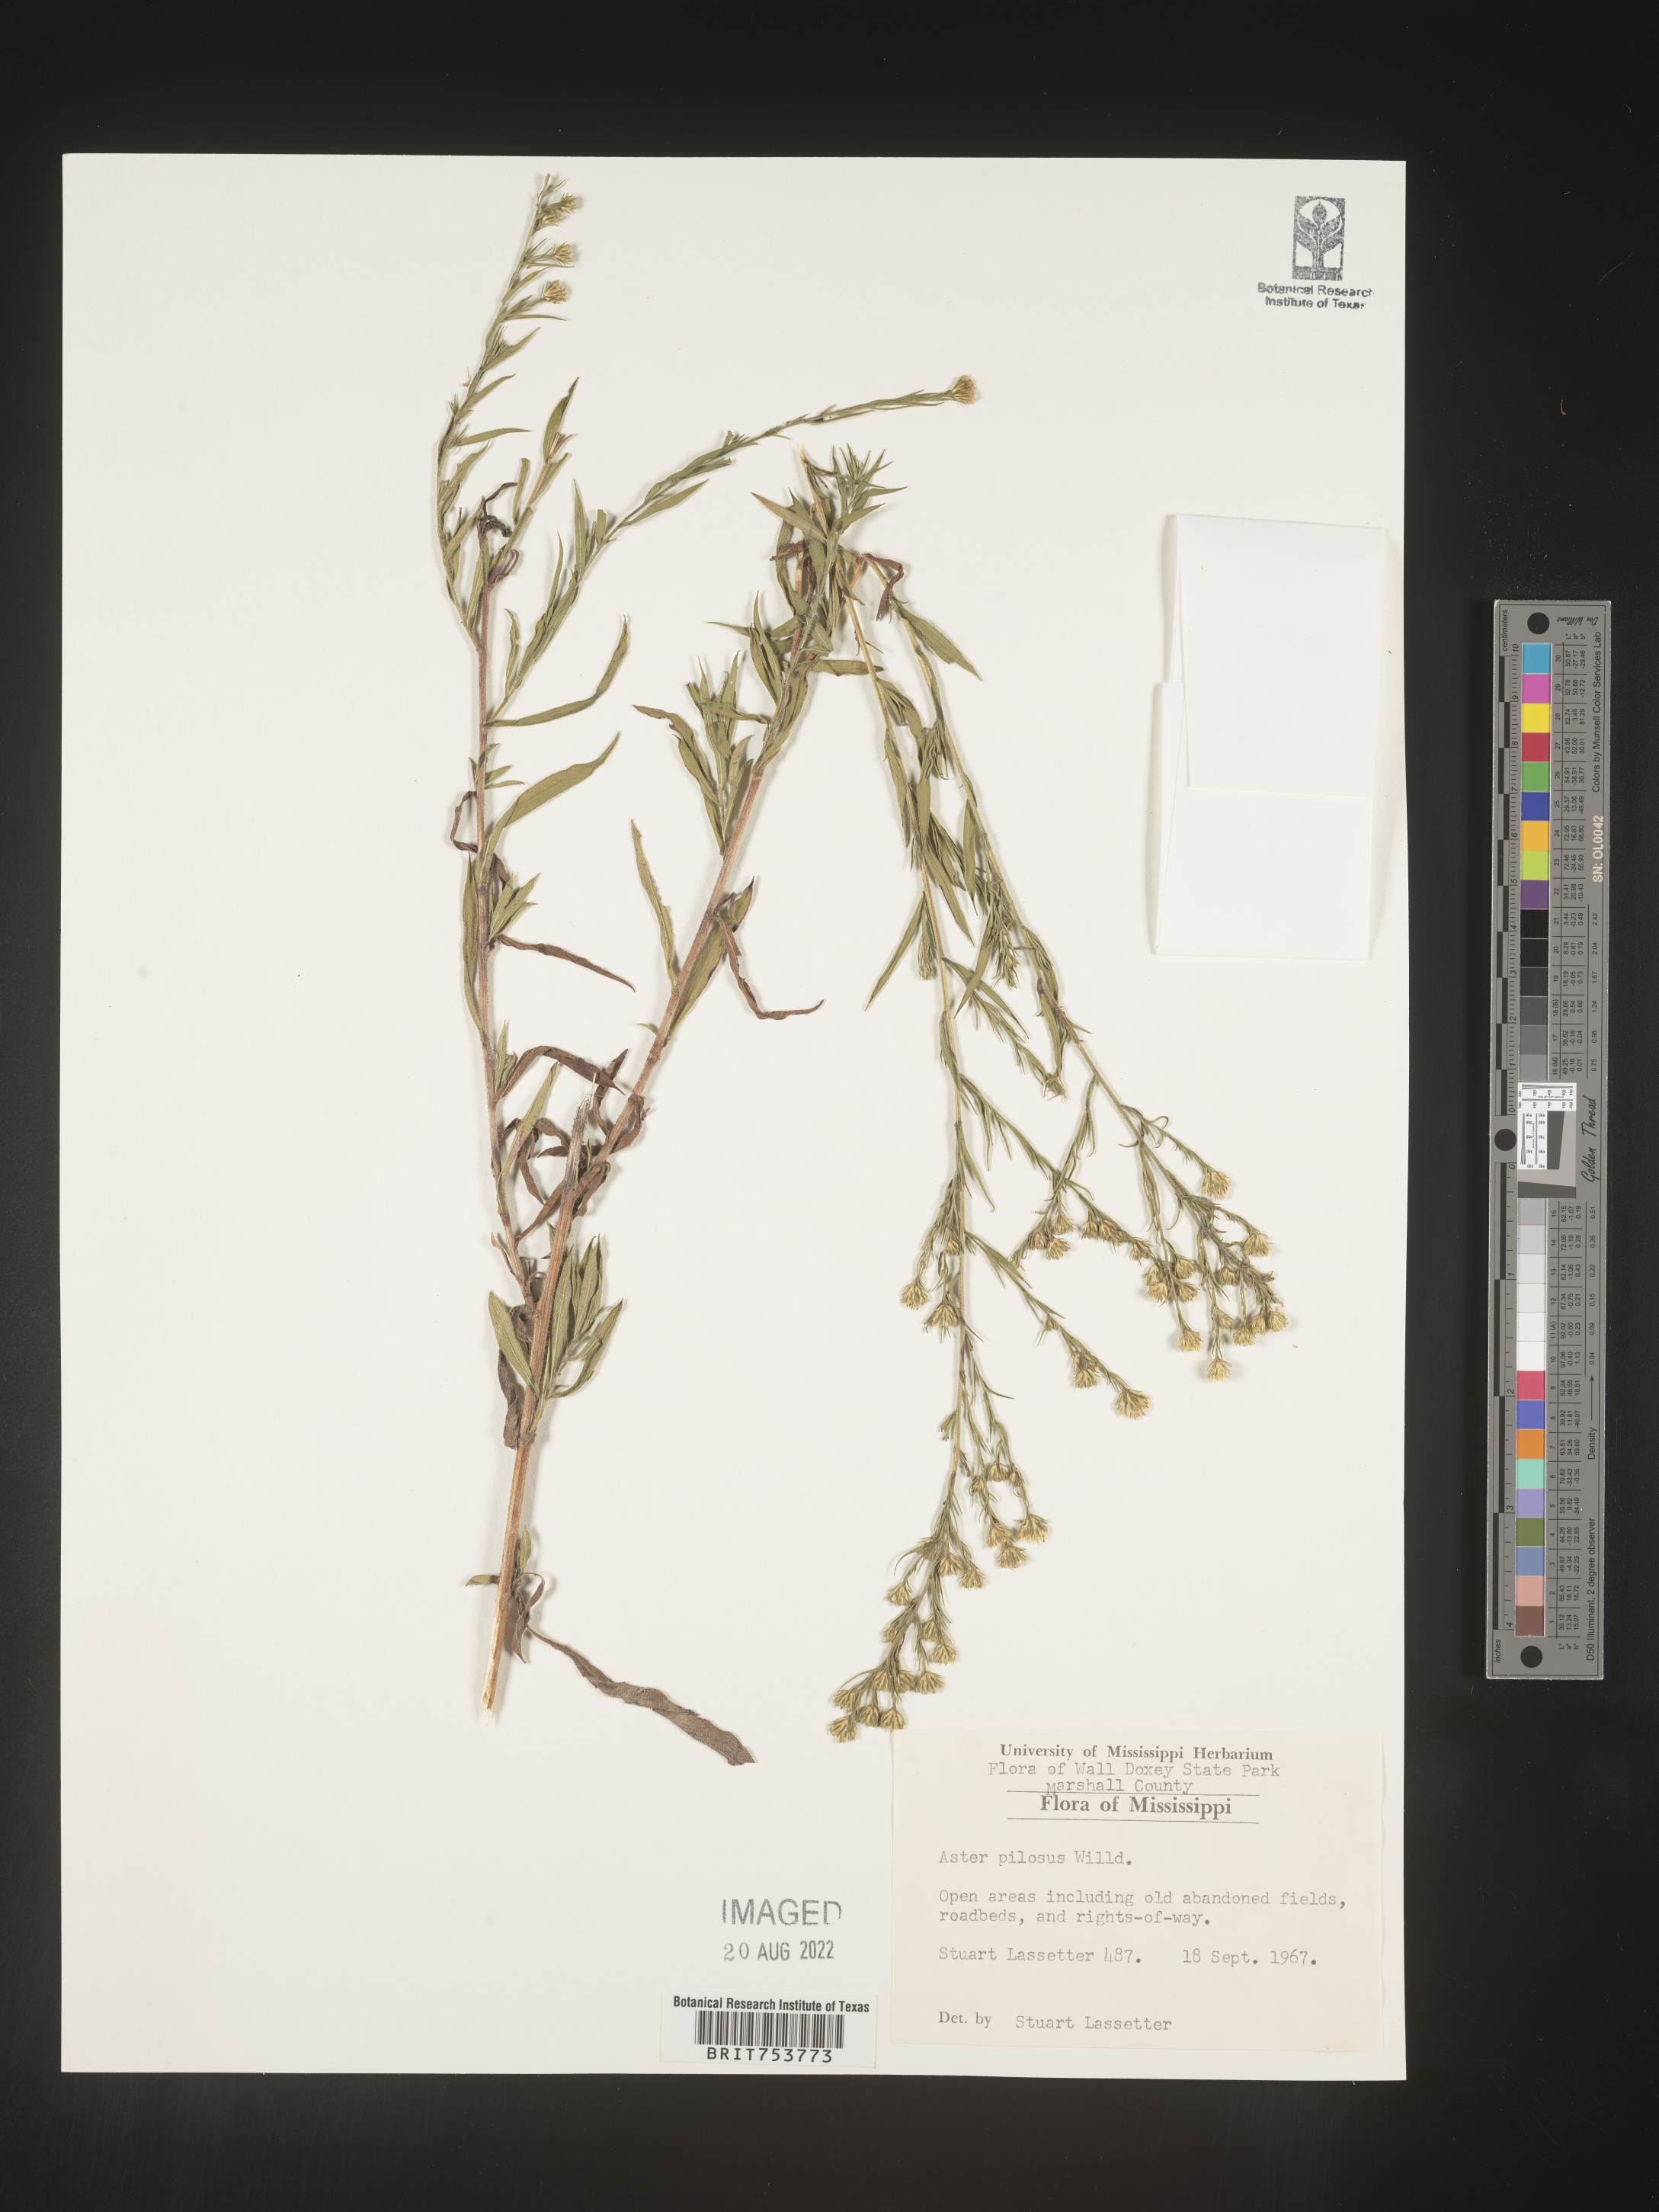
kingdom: Plantae
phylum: Tracheophyta
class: Magnoliopsida
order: Asterales
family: Asteraceae
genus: Symphyotrichum
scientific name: Symphyotrichum pilosum
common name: Awl aster
